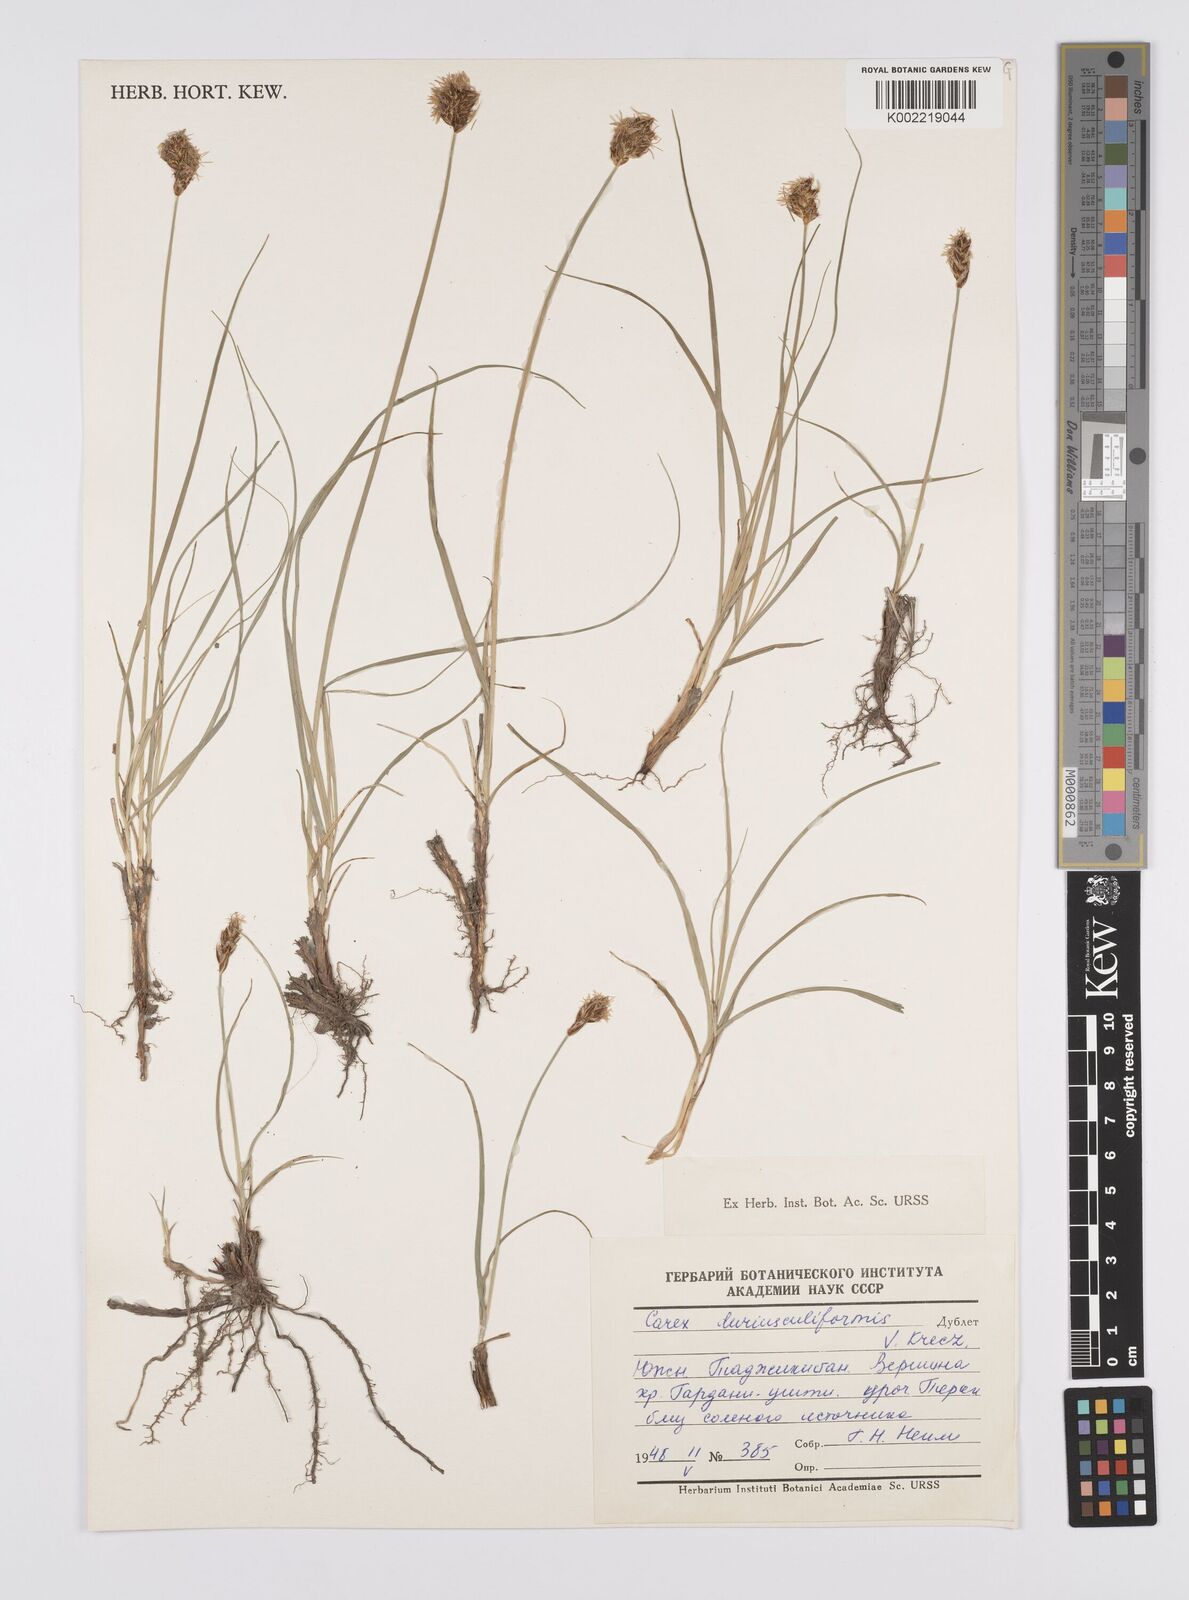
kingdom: Plantae
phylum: Tracheophyta
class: Liliopsida
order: Poales
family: Cyperaceae
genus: Carex
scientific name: Carex yamatsutana
